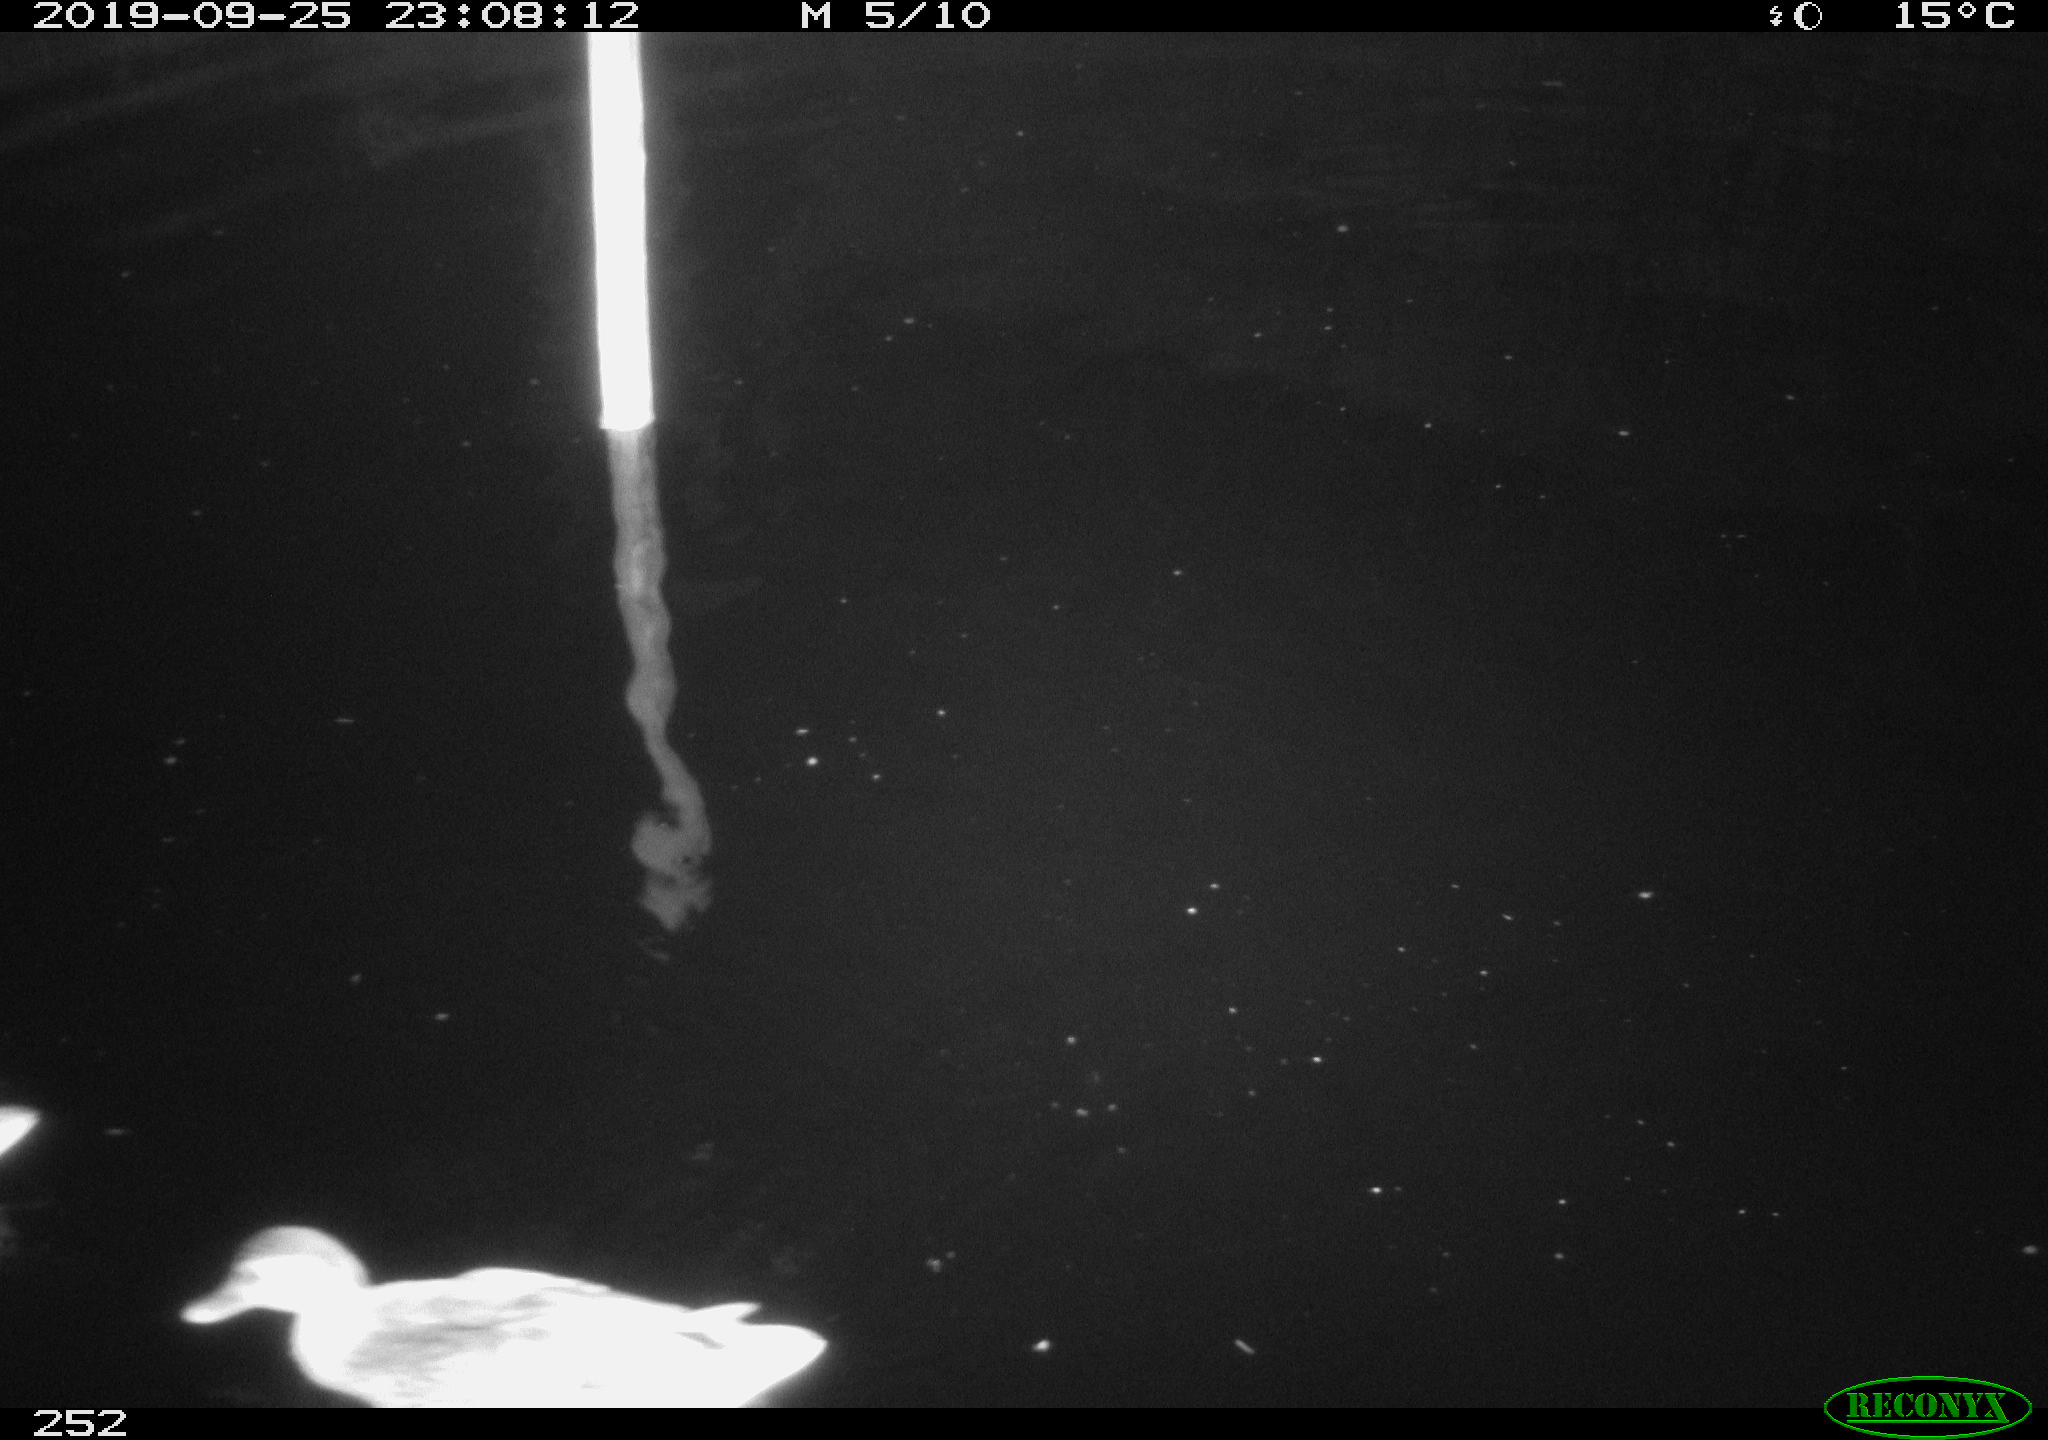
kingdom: Animalia
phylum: Chordata
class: Aves
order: Anseriformes
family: Anatidae
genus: Anas
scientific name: Anas platyrhynchos
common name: Mallard
